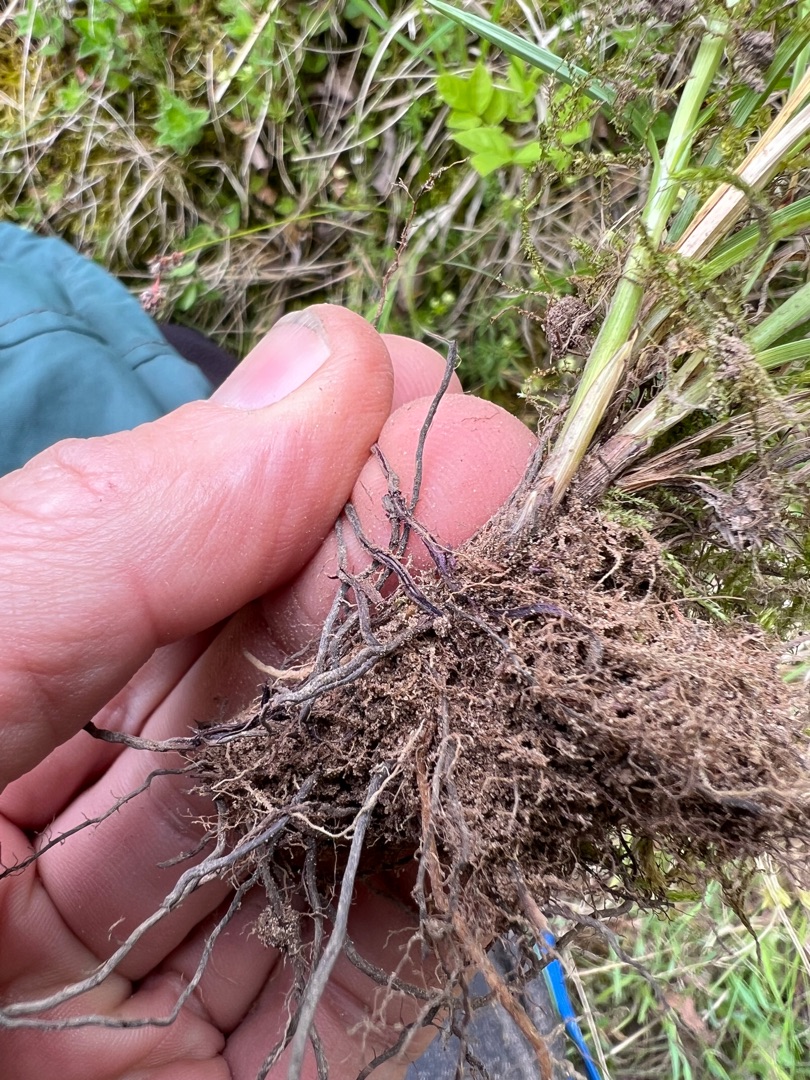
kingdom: Plantae
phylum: Tracheophyta
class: Liliopsida
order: Poales
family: Cyperaceae
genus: Carex
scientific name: Carex spicata
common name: Spidskapslet star
